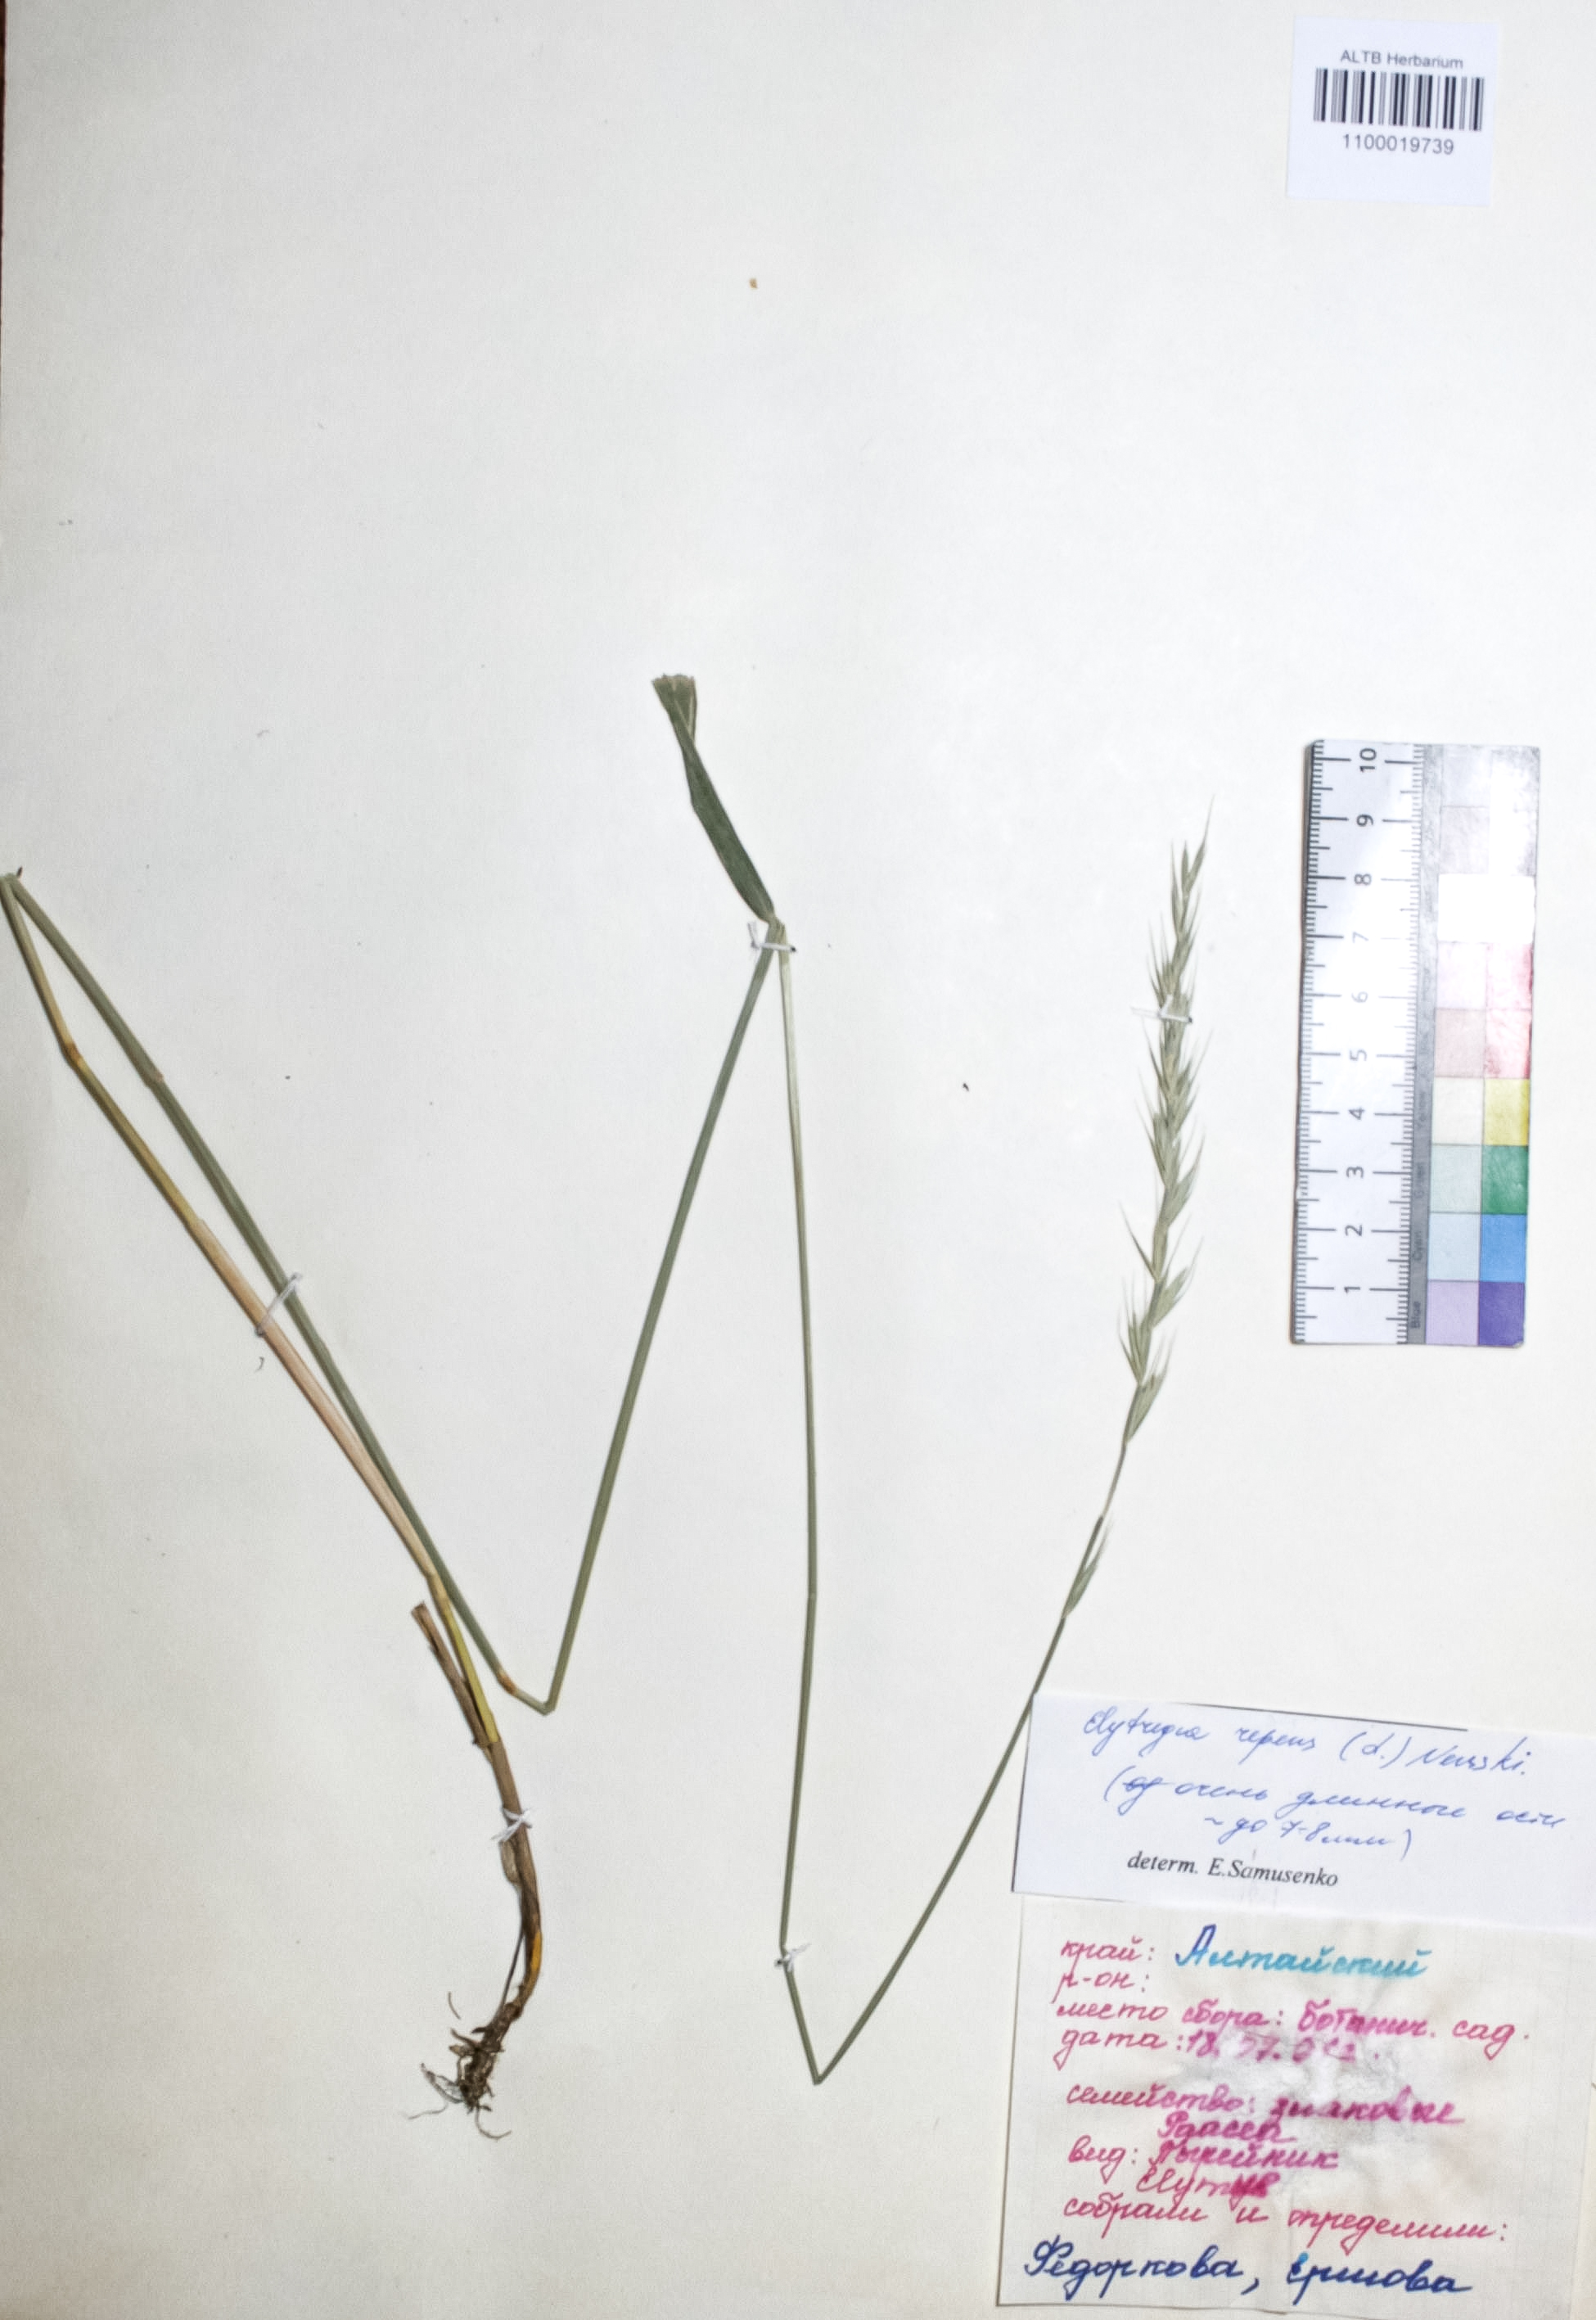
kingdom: Plantae
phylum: Tracheophyta
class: Liliopsida
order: Poales
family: Poaceae
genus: Elymus
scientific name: Elymus repens
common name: Quackgrass
